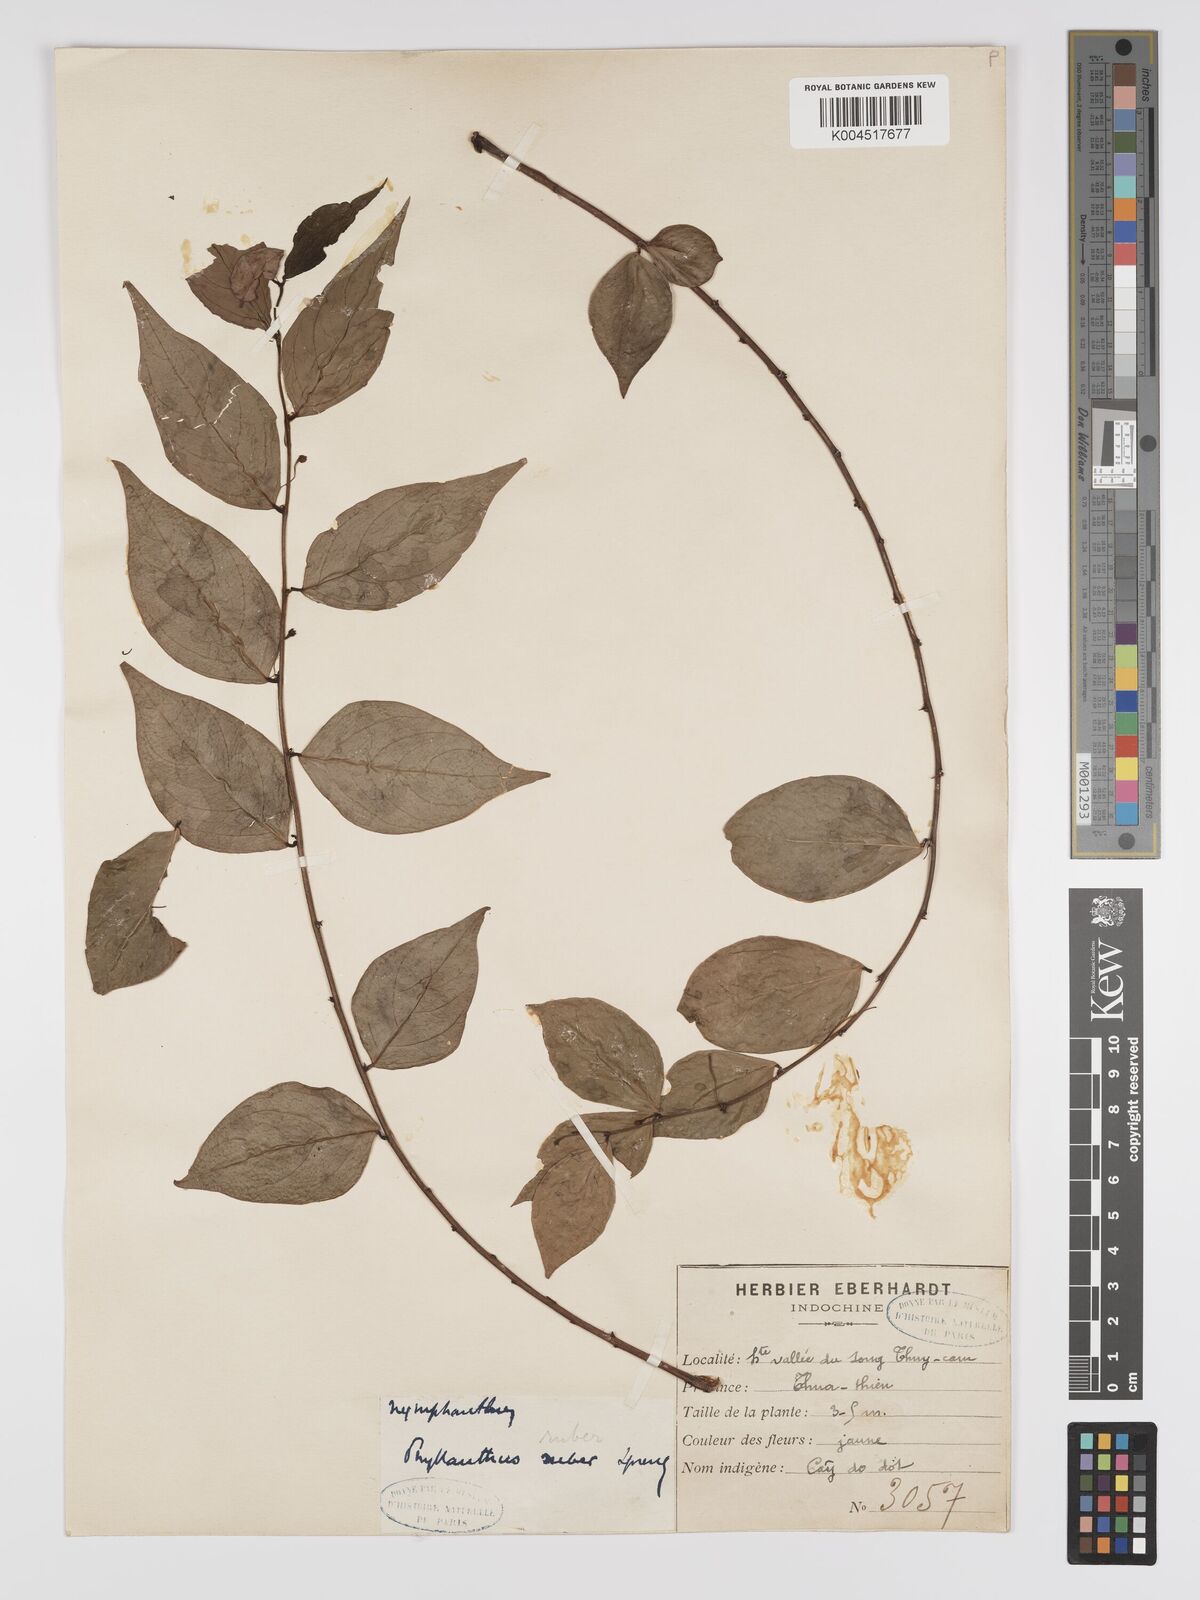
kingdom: Plantae
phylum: Tracheophyta
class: Magnoliopsida
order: Malpighiales
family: Phyllanthaceae
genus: Phyllanthus
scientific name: Phyllanthus
